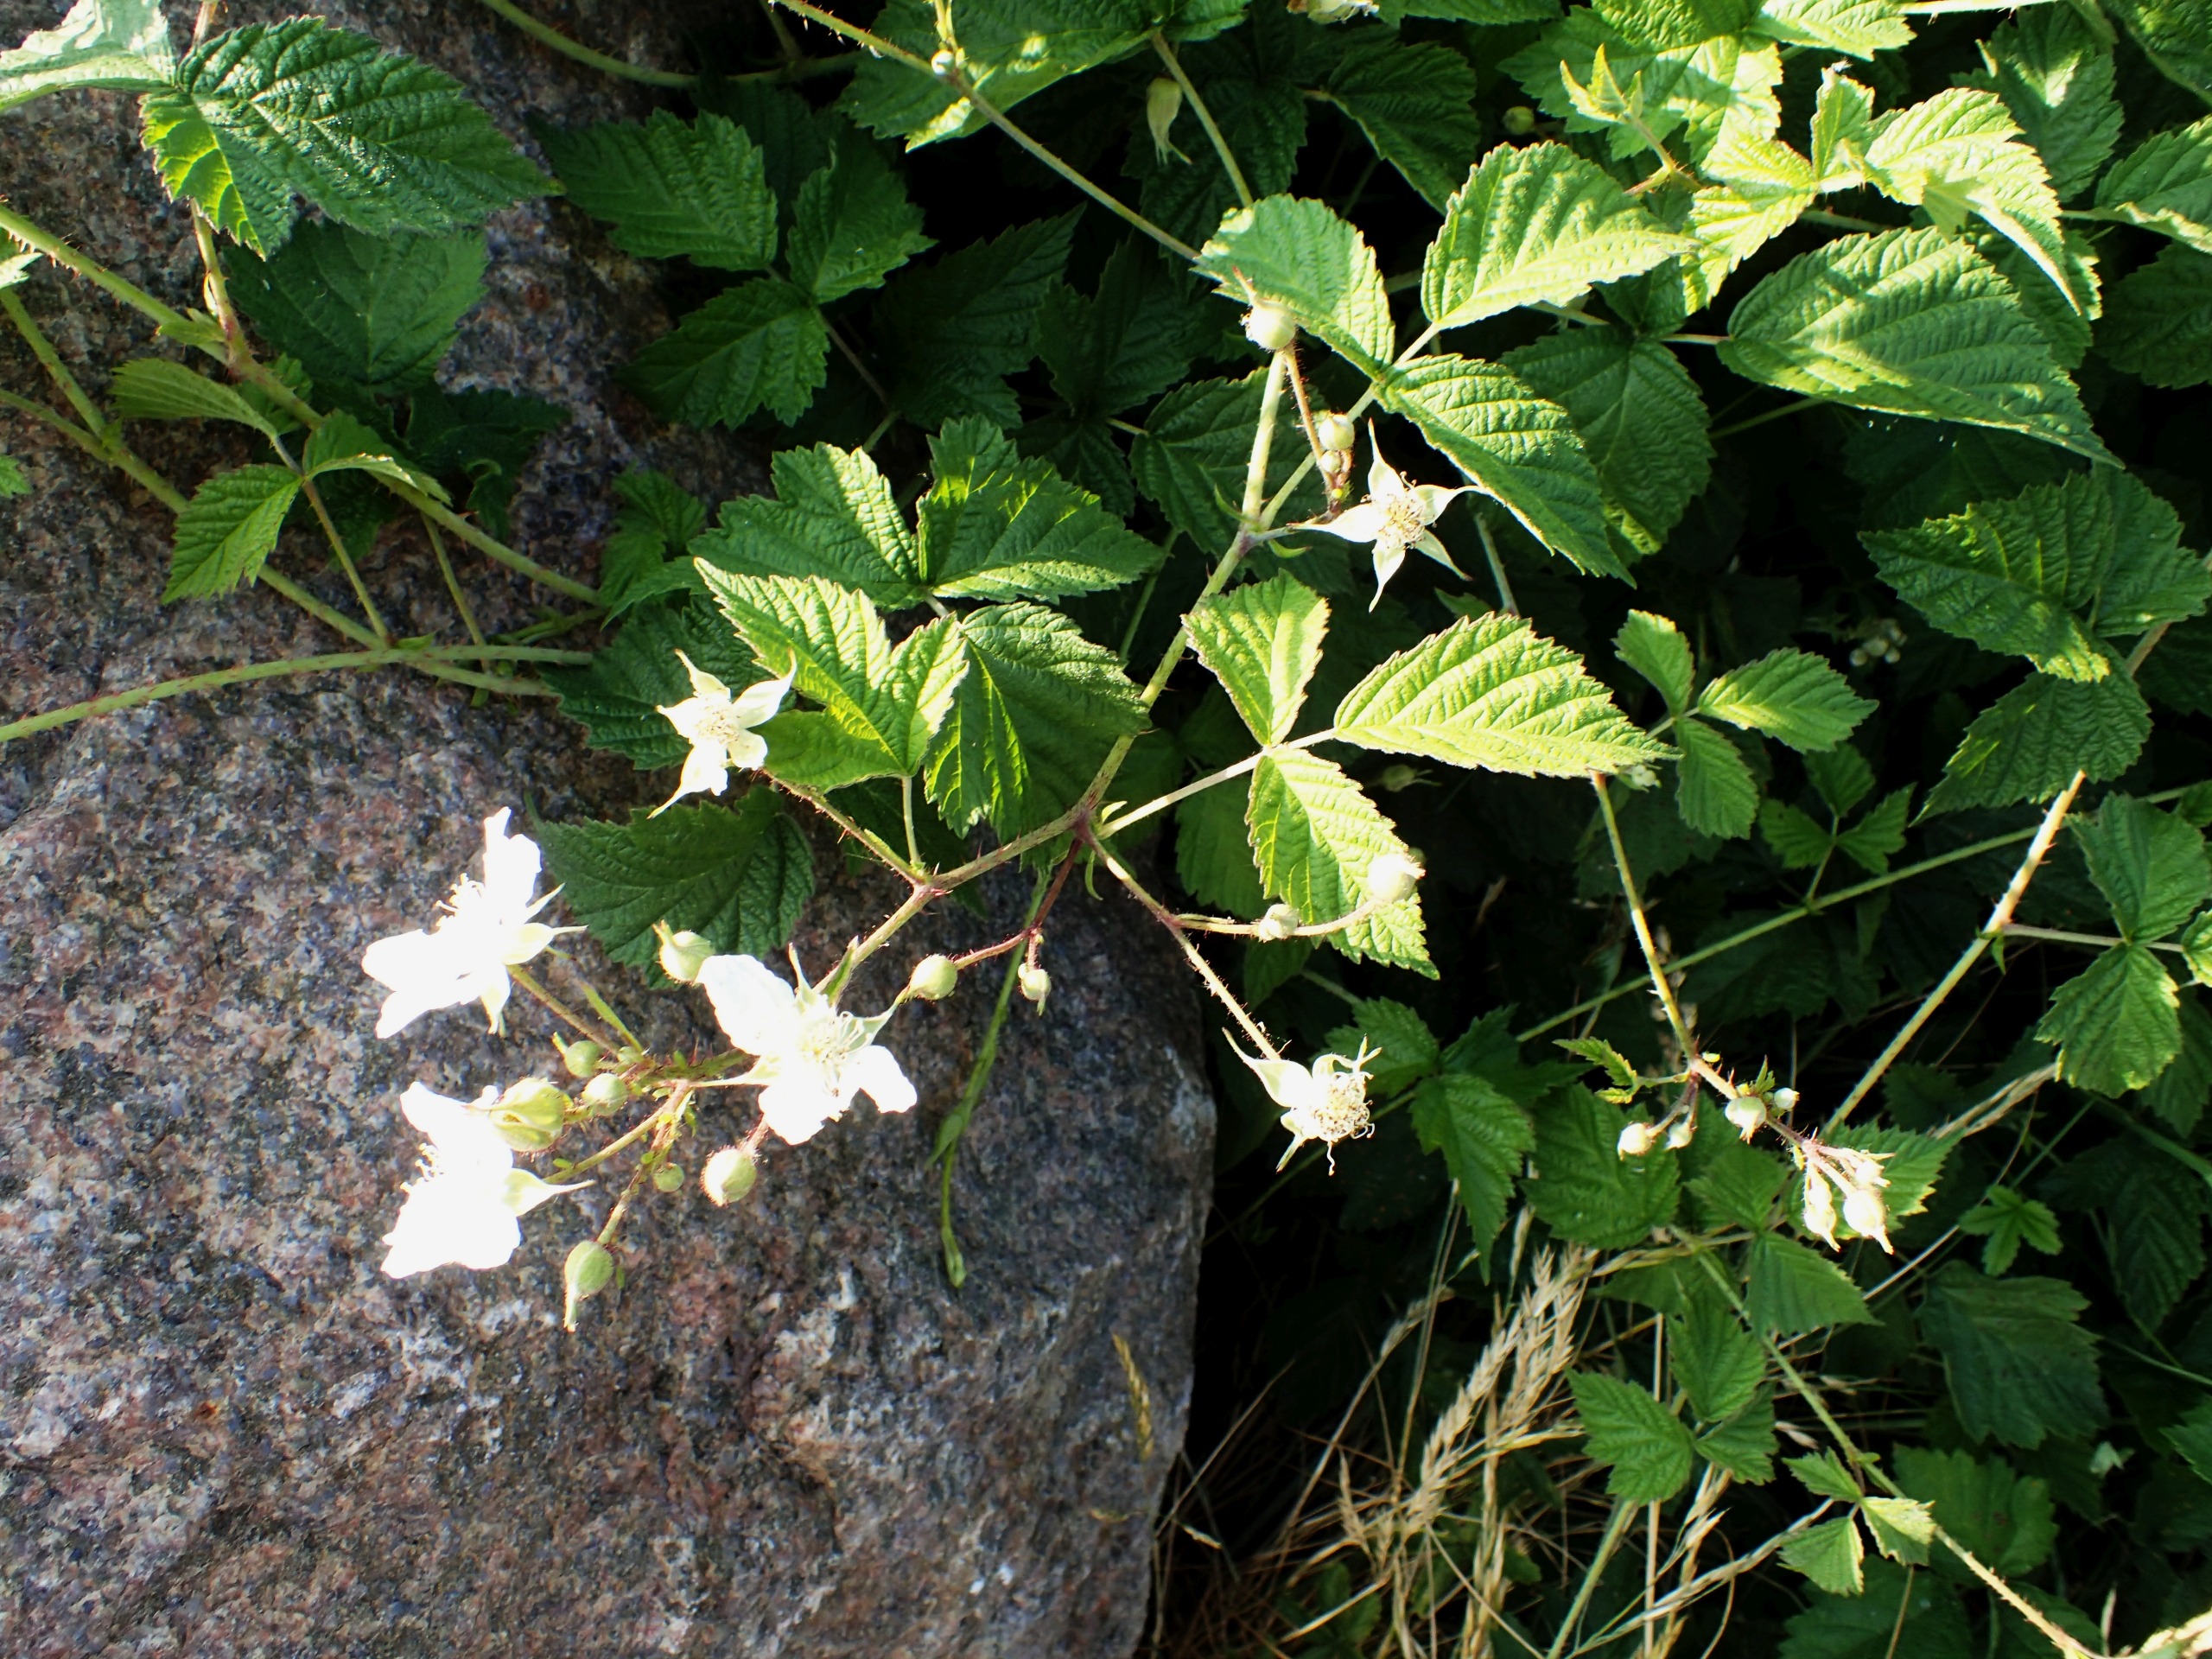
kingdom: Plantae
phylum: Tracheophyta
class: Magnoliopsida
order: Rosales
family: Rosaceae
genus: Rubus
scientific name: Rubus caesius
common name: Korbær
